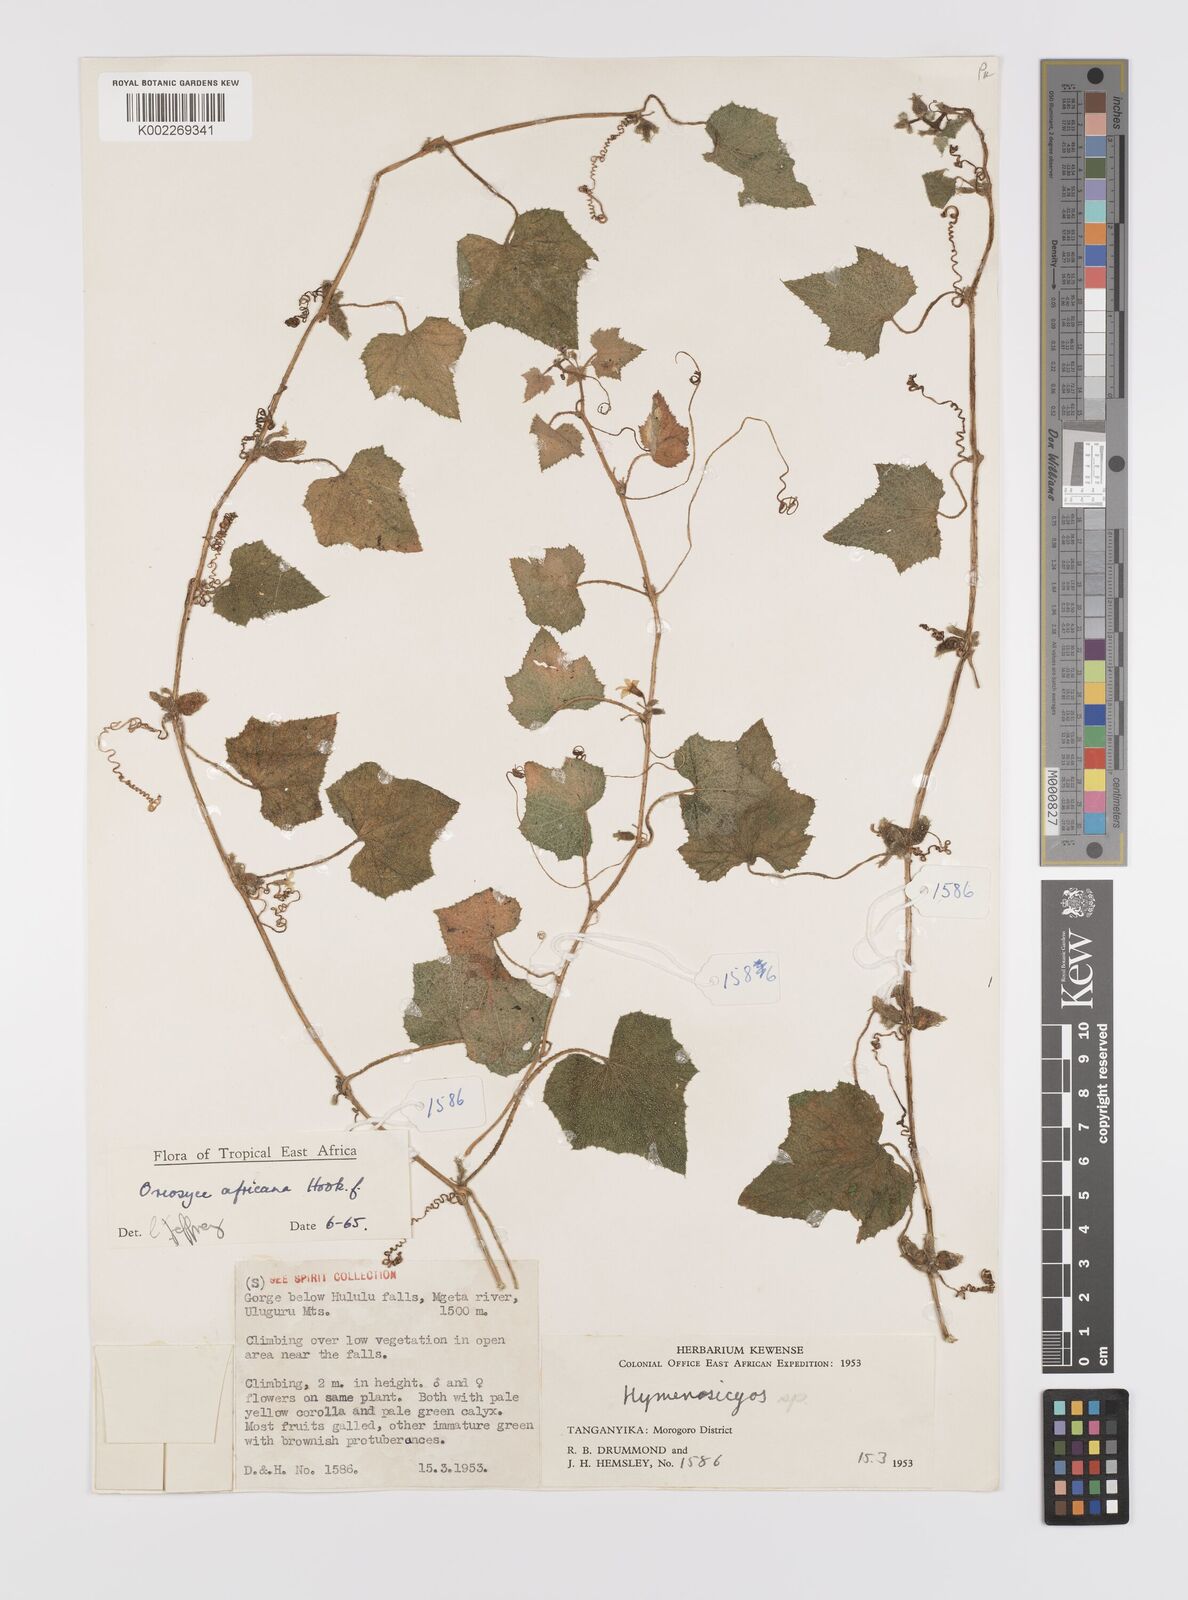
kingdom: Plantae
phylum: Tracheophyta
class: Magnoliopsida
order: Cucurbitales
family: Cucurbitaceae
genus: Cucumis
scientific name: Cucumis oreosyce
